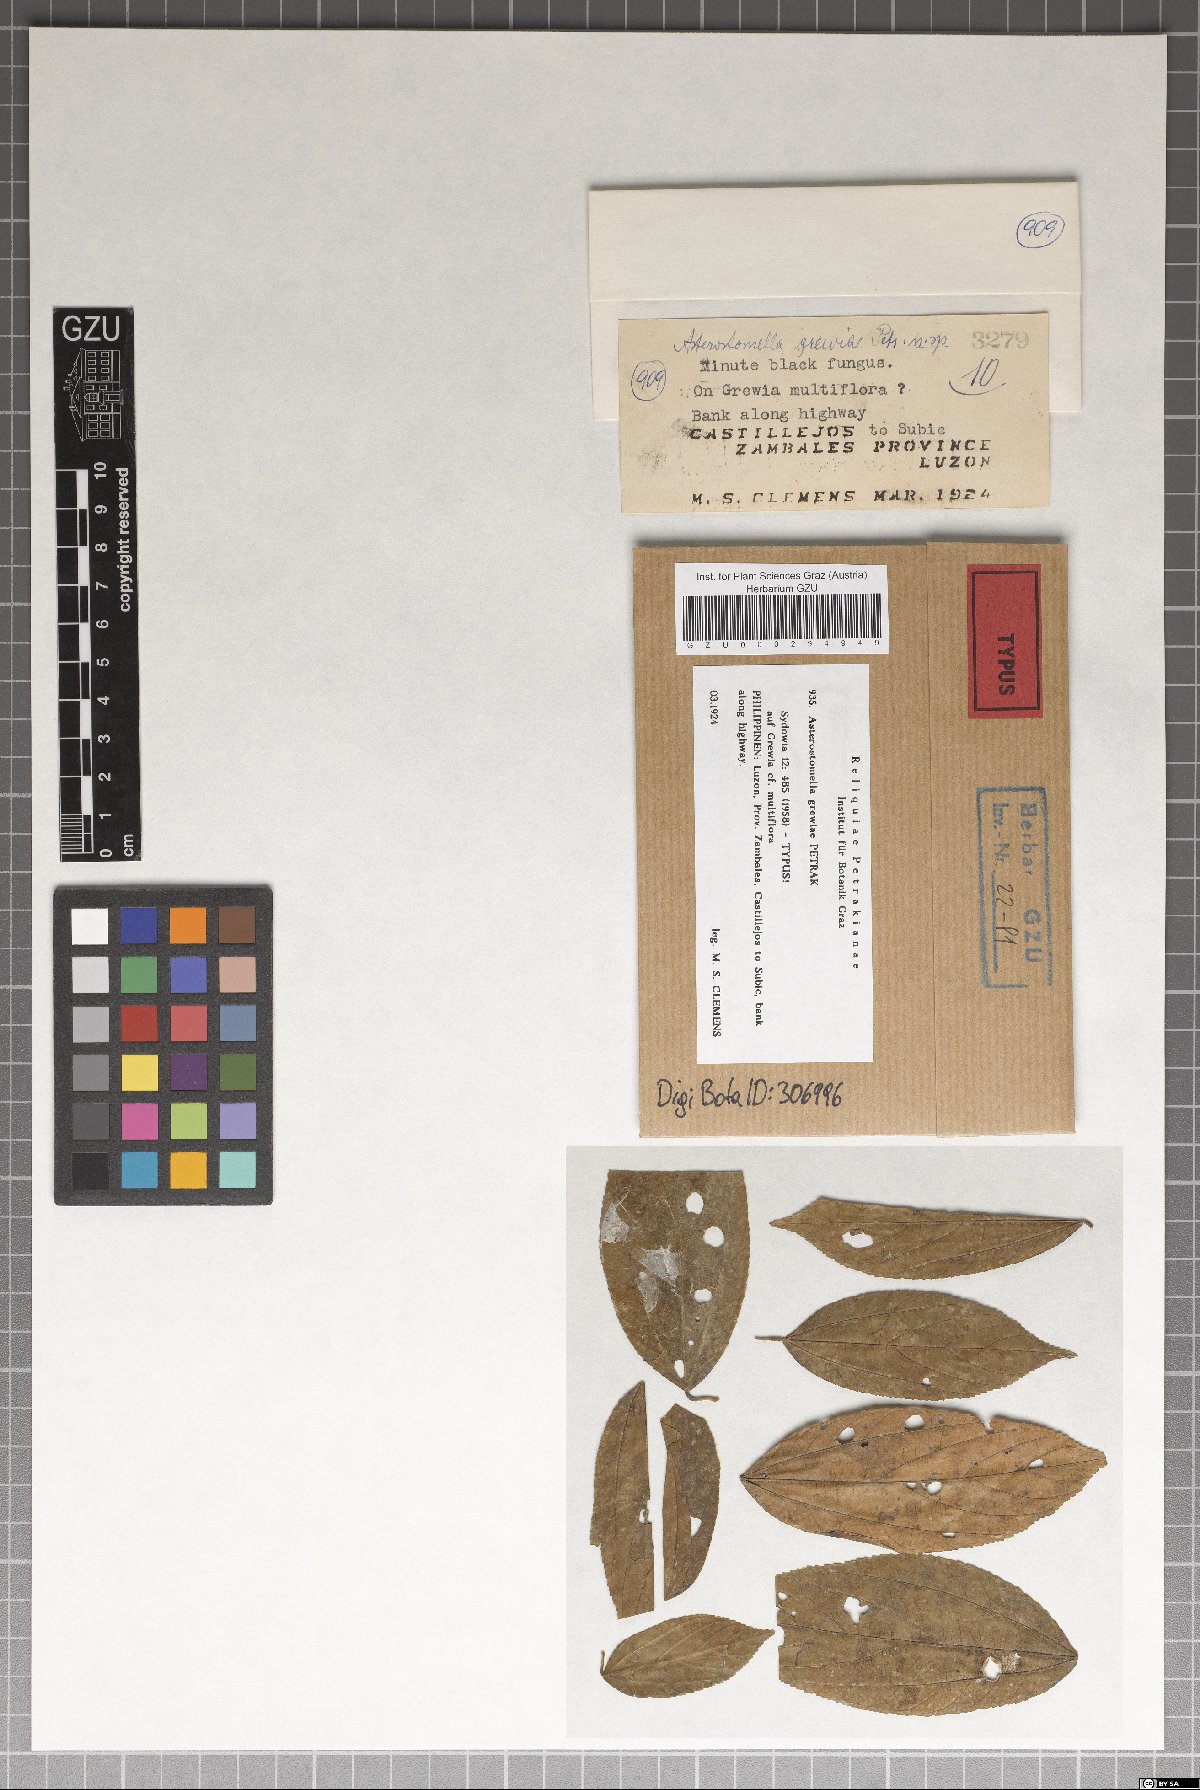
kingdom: Fungi
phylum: Ascomycota
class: Dothideomycetes
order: Asterinales
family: Asterinaceae
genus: Asterostomella
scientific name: Asterostomella grewiae
